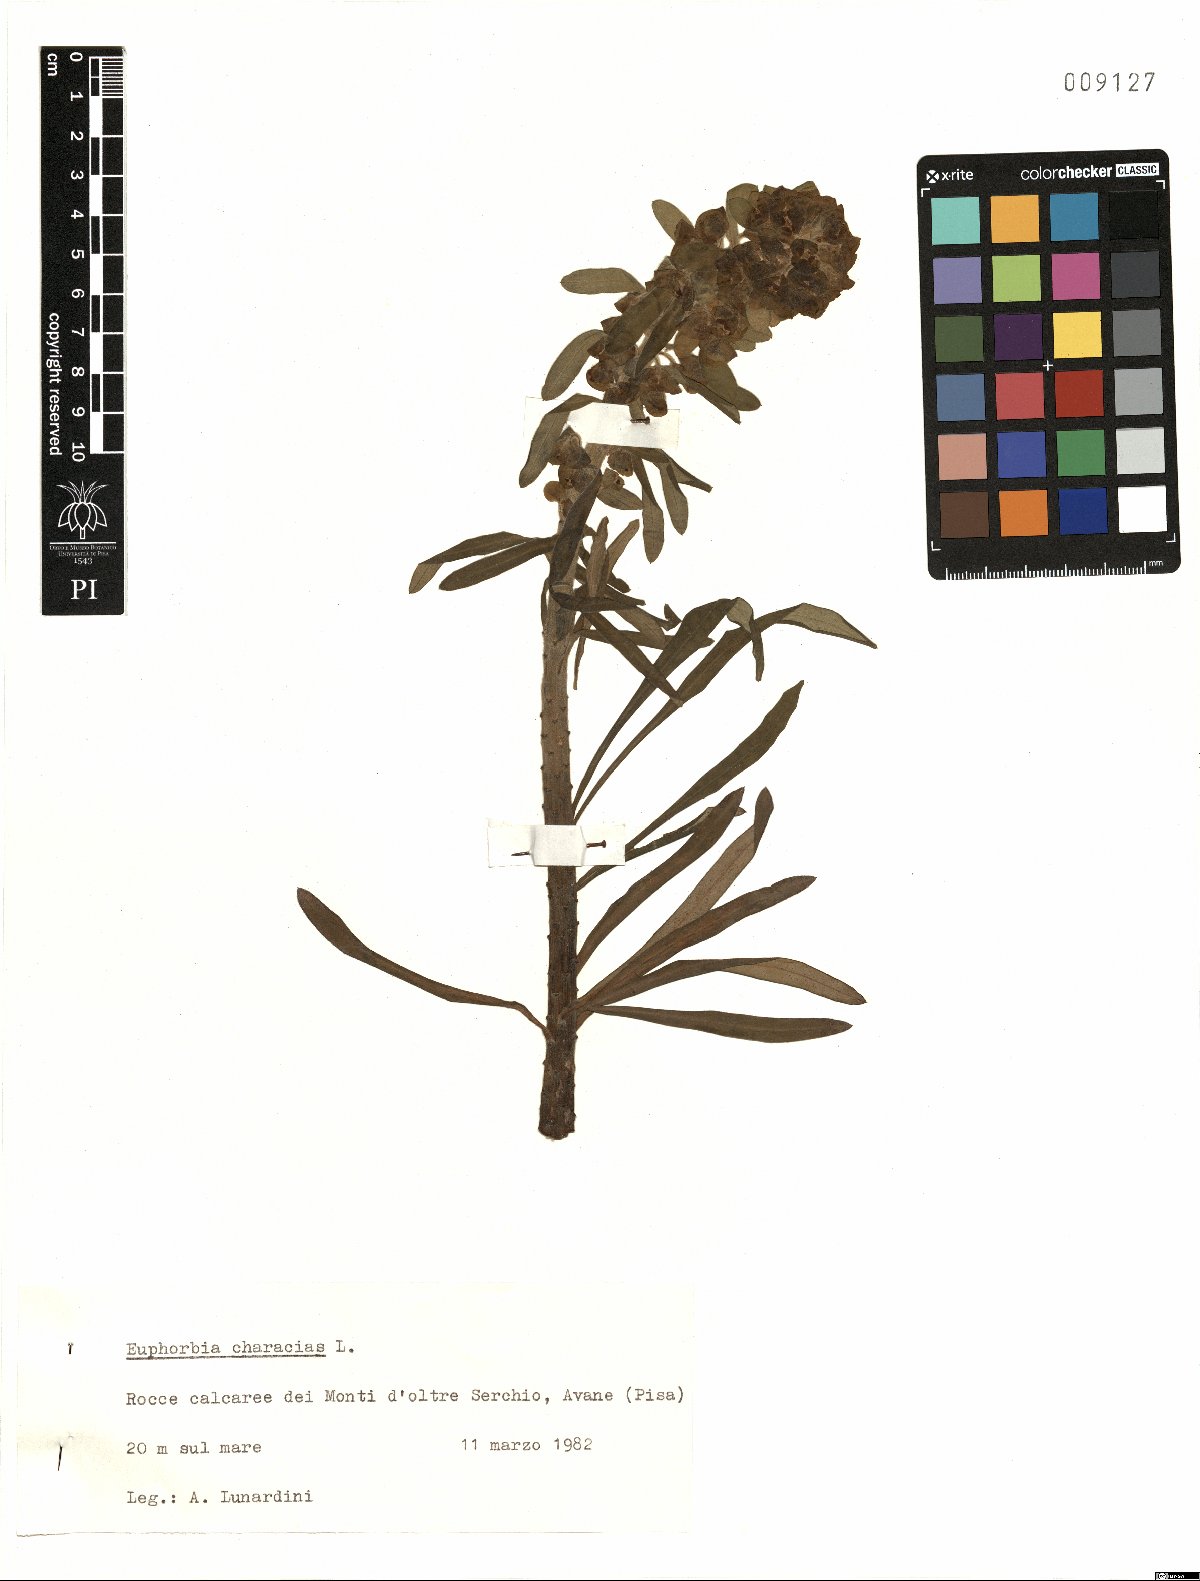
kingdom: Plantae
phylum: Tracheophyta
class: Magnoliopsida
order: Malpighiales
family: Euphorbiaceae
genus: Euphorbia
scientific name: Euphorbia characias
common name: Mediterranean spurge
